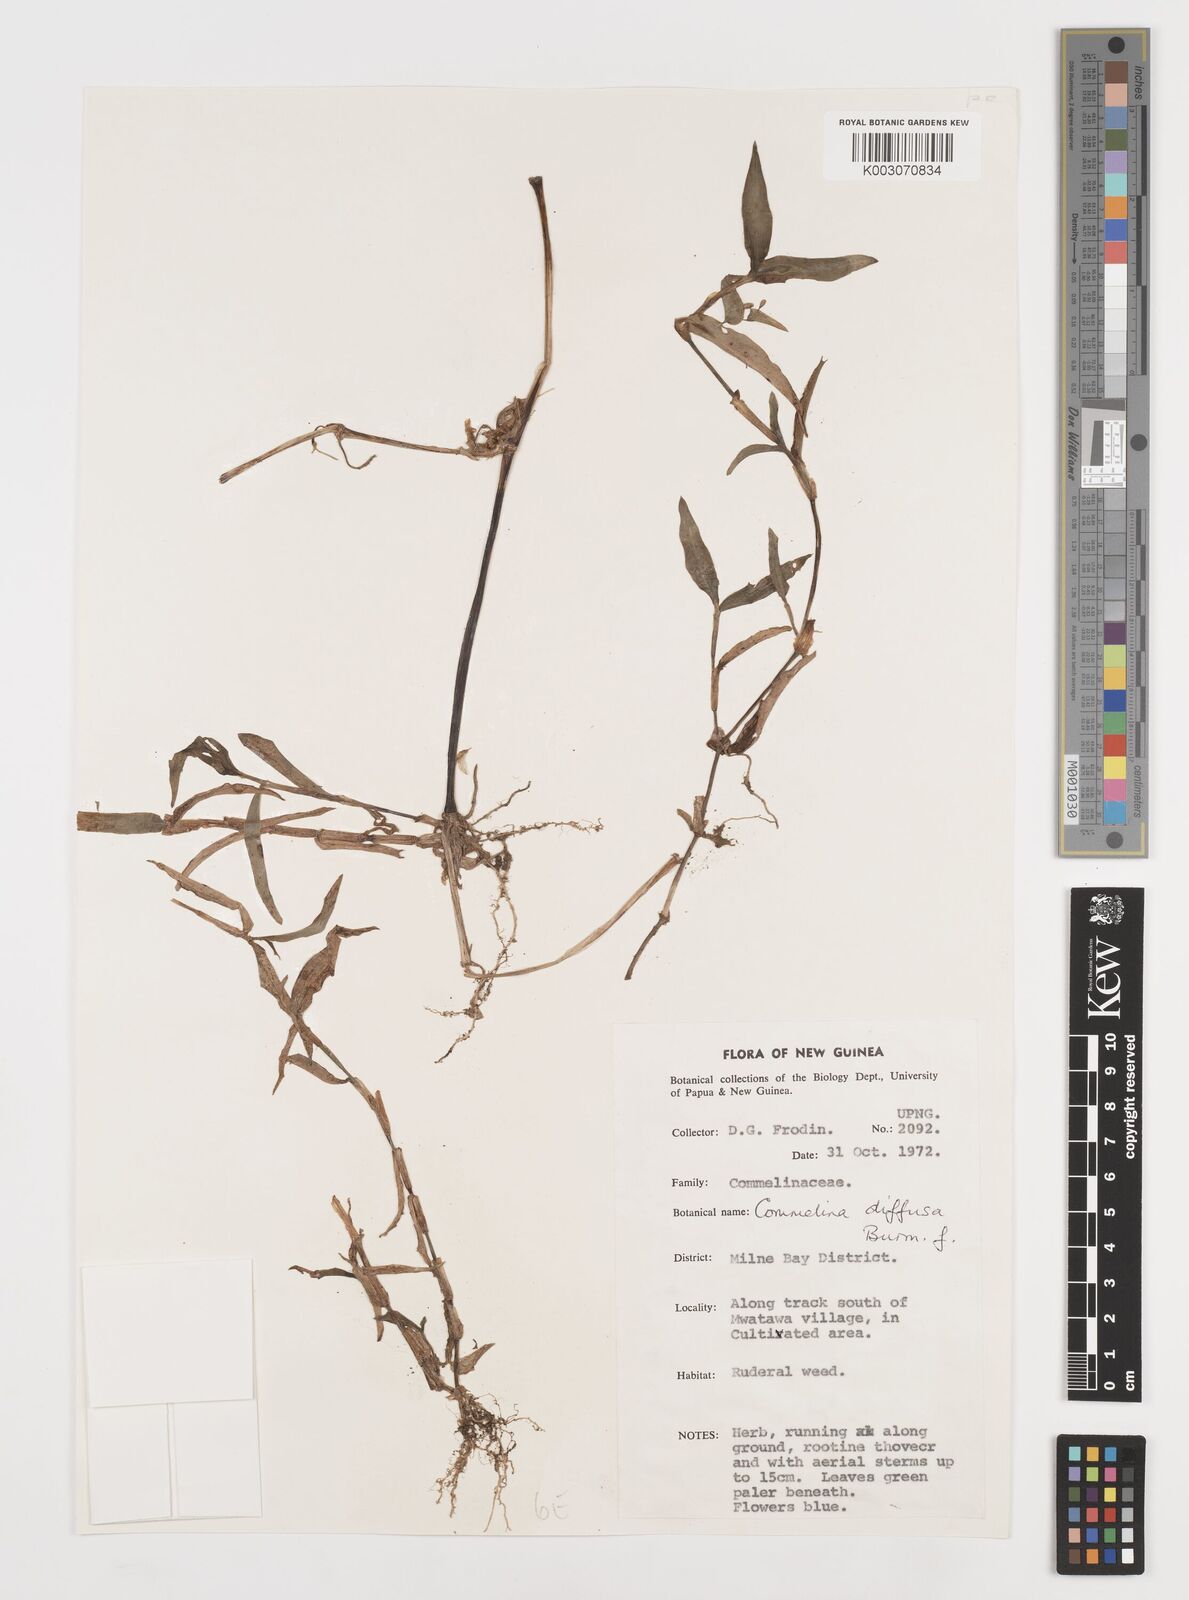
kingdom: Plantae
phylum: Tracheophyta
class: Liliopsida
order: Commelinales
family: Commelinaceae
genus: Commelina
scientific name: Commelina diffusa
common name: Climbing dayflower
